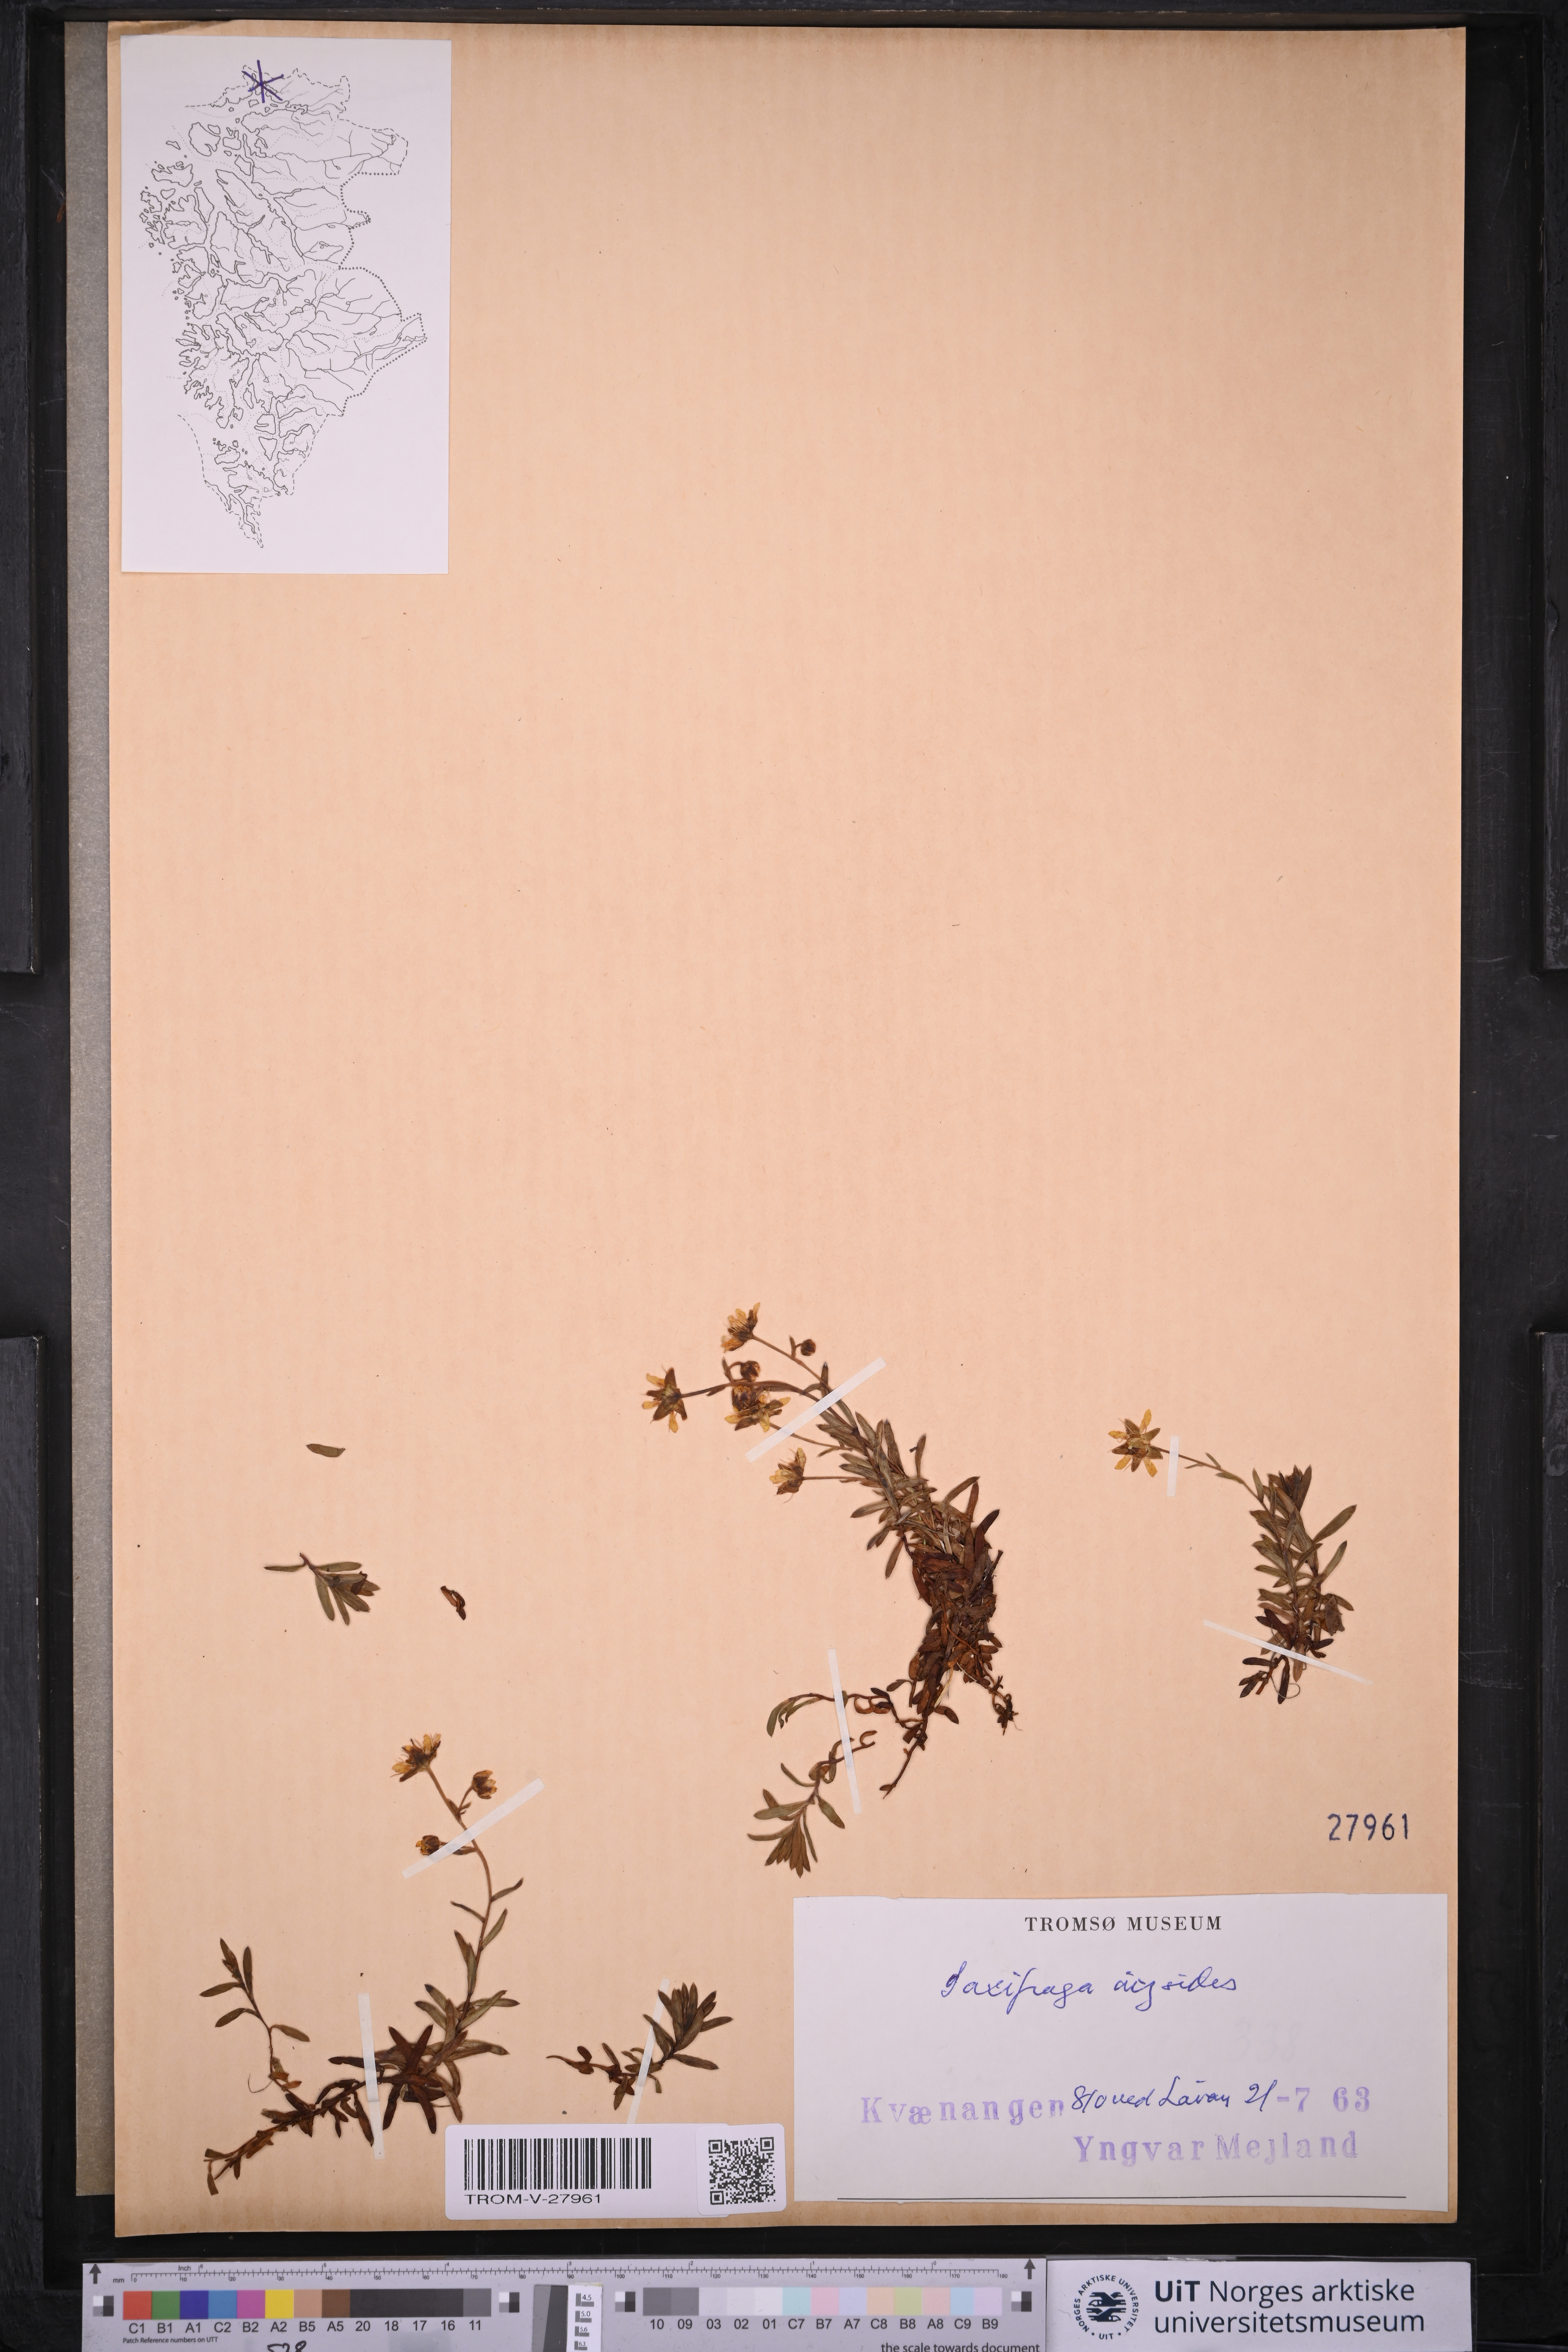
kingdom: Plantae
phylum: Tracheophyta
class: Magnoliopsida
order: Saxifragales
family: Saxifragaceae
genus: Saxifraga
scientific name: Saxifraga aizoides
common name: Yellow mountain saxifrage
